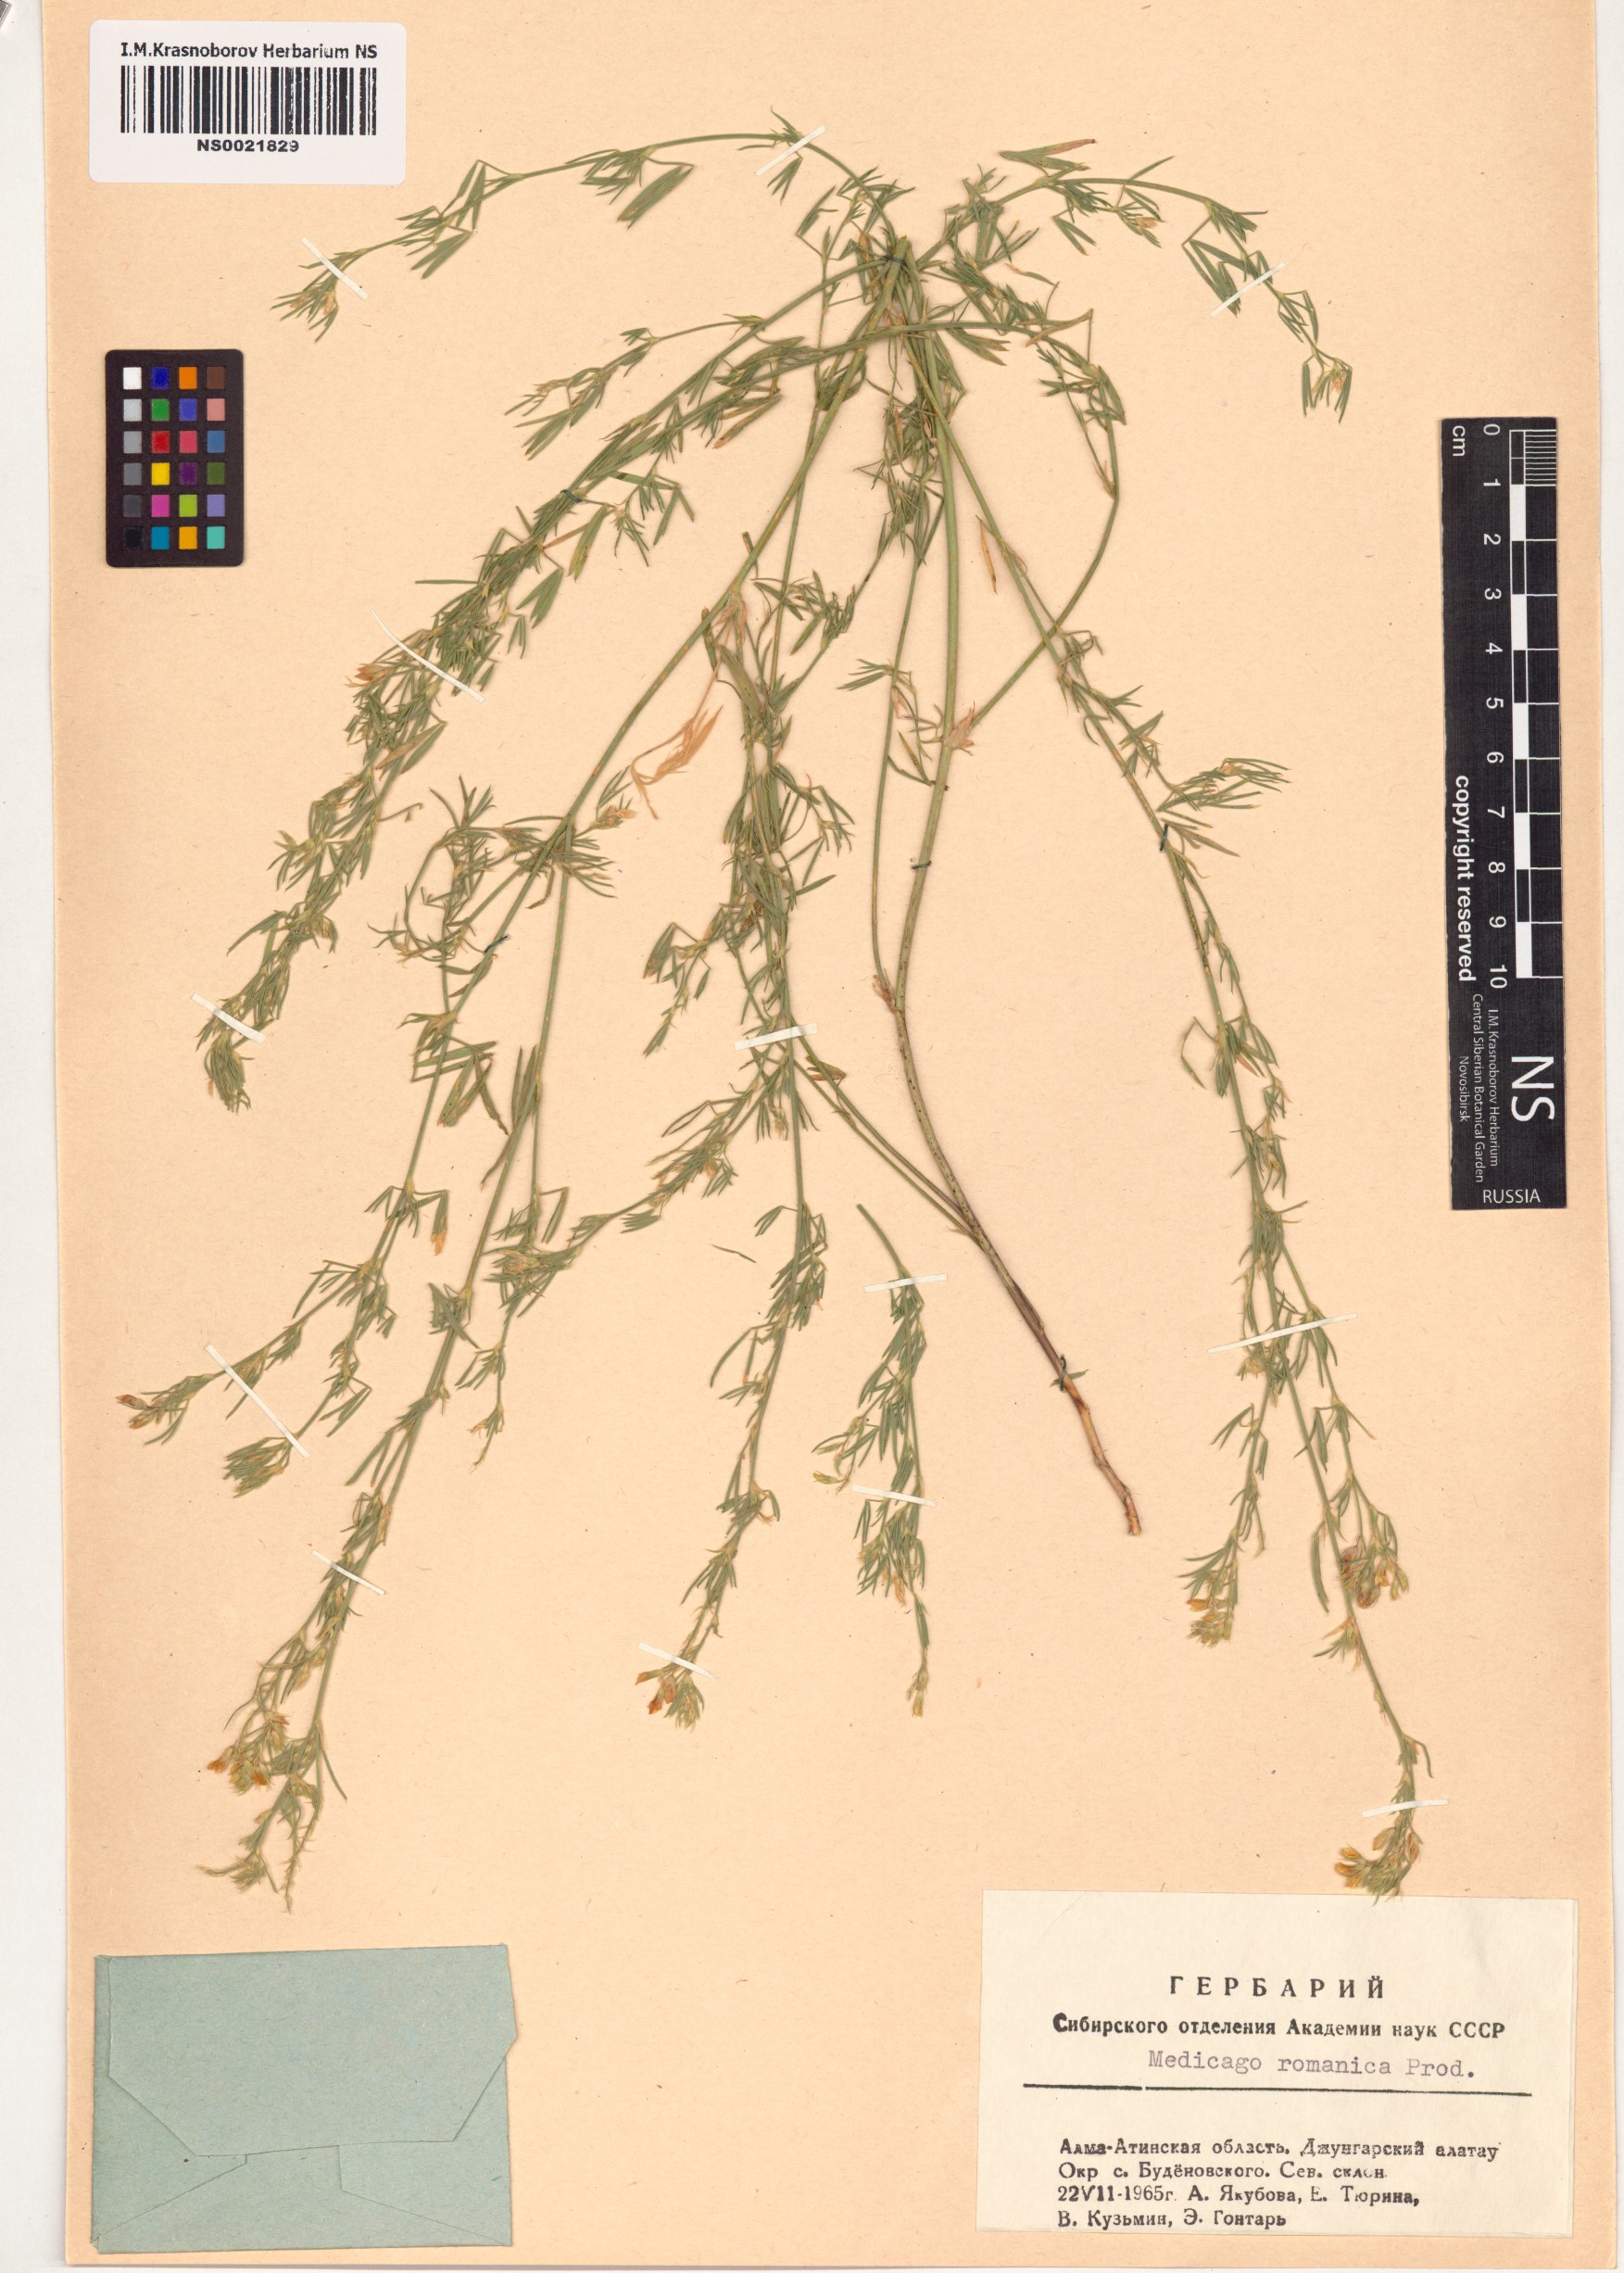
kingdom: Plantae
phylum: Tracheophyta
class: Magnoliopsida
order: Fabales
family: Fabaceae
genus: Medicago
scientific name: Medicago falcata
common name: Sickle medick
